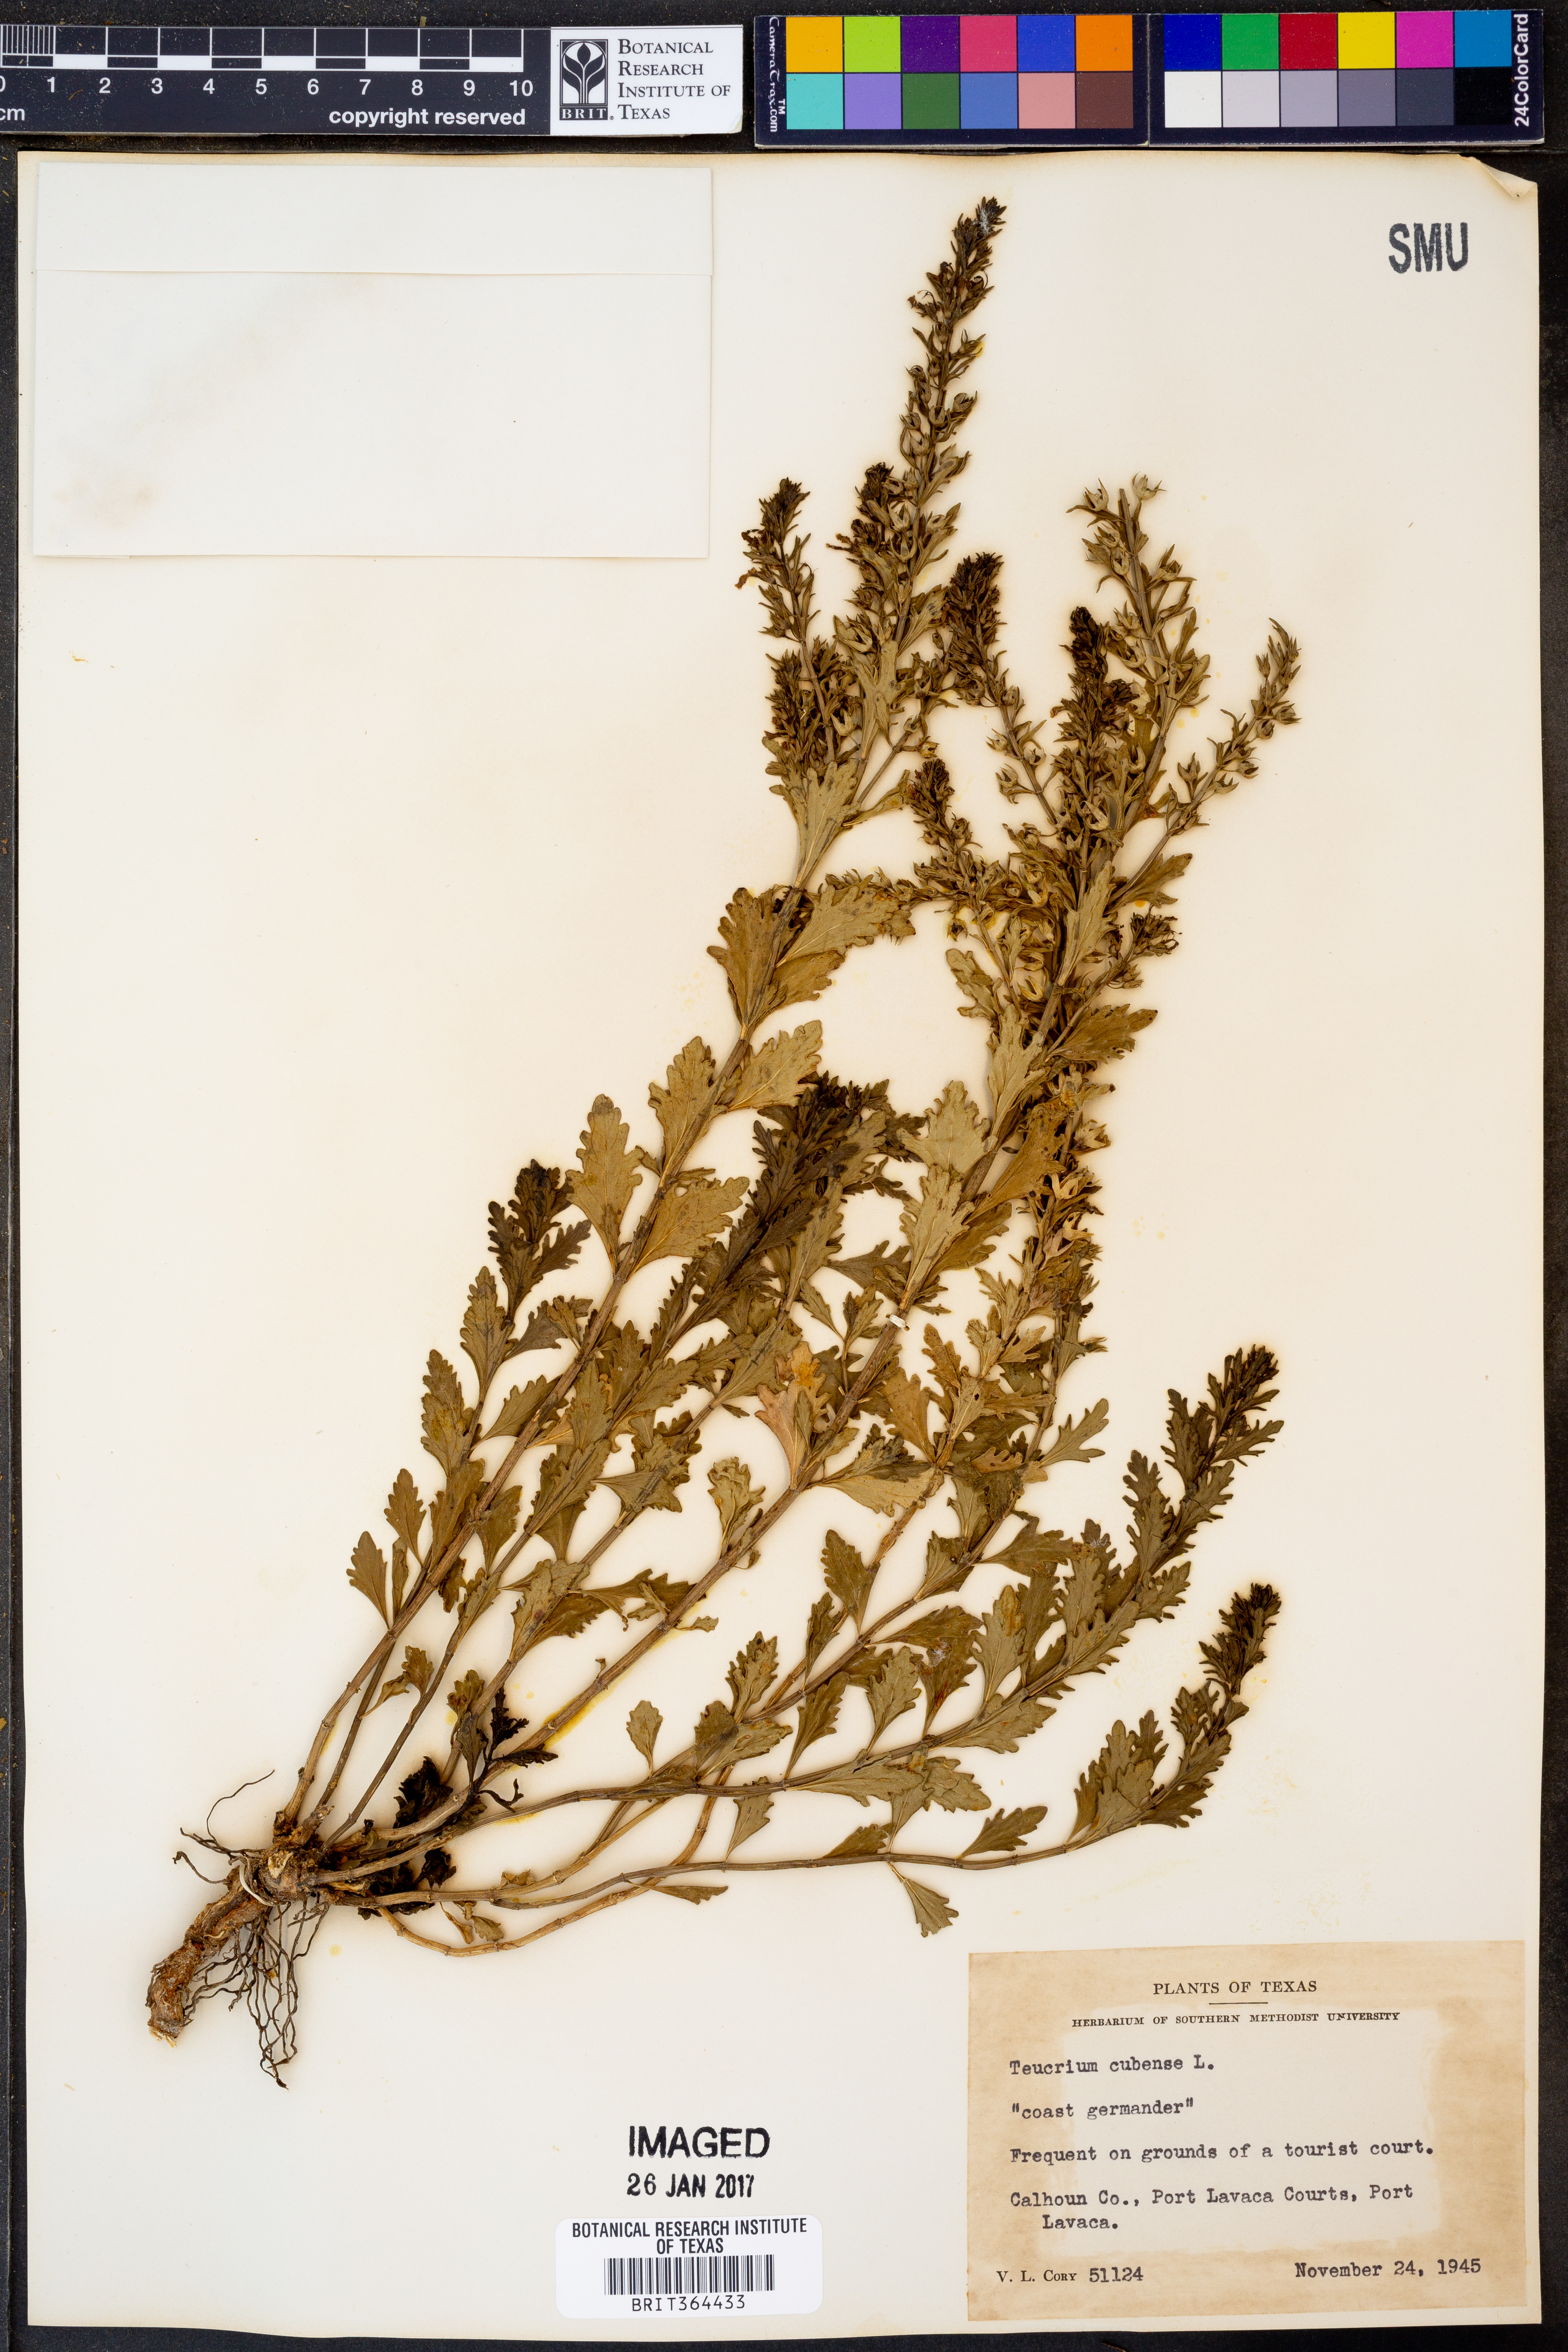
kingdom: Plantae
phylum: Tracheophyta
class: Magnoliopsida
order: Lamiales
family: Lamiaceae
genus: Teucrium
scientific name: Teucrium cubense
